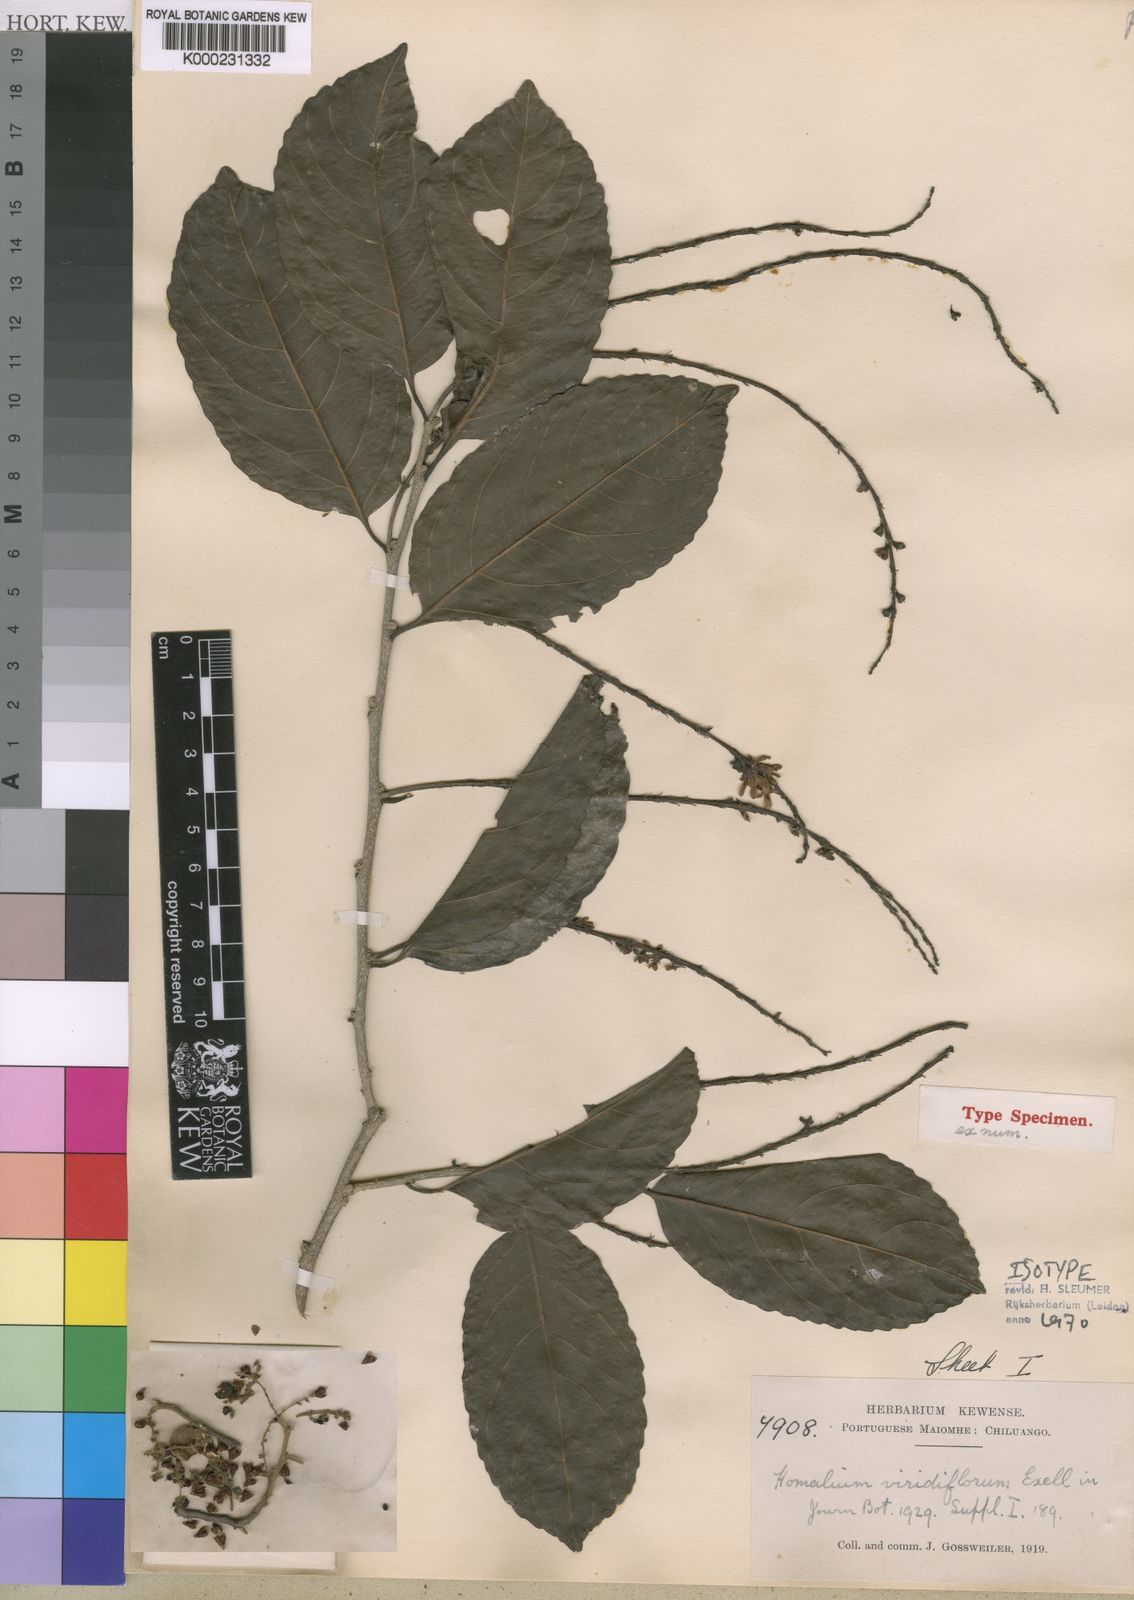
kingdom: Plantae
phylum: Tracheophyta
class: Magnoliopsida
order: Malpighiales
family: Salicaceae
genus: Homalium
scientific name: Homalium
